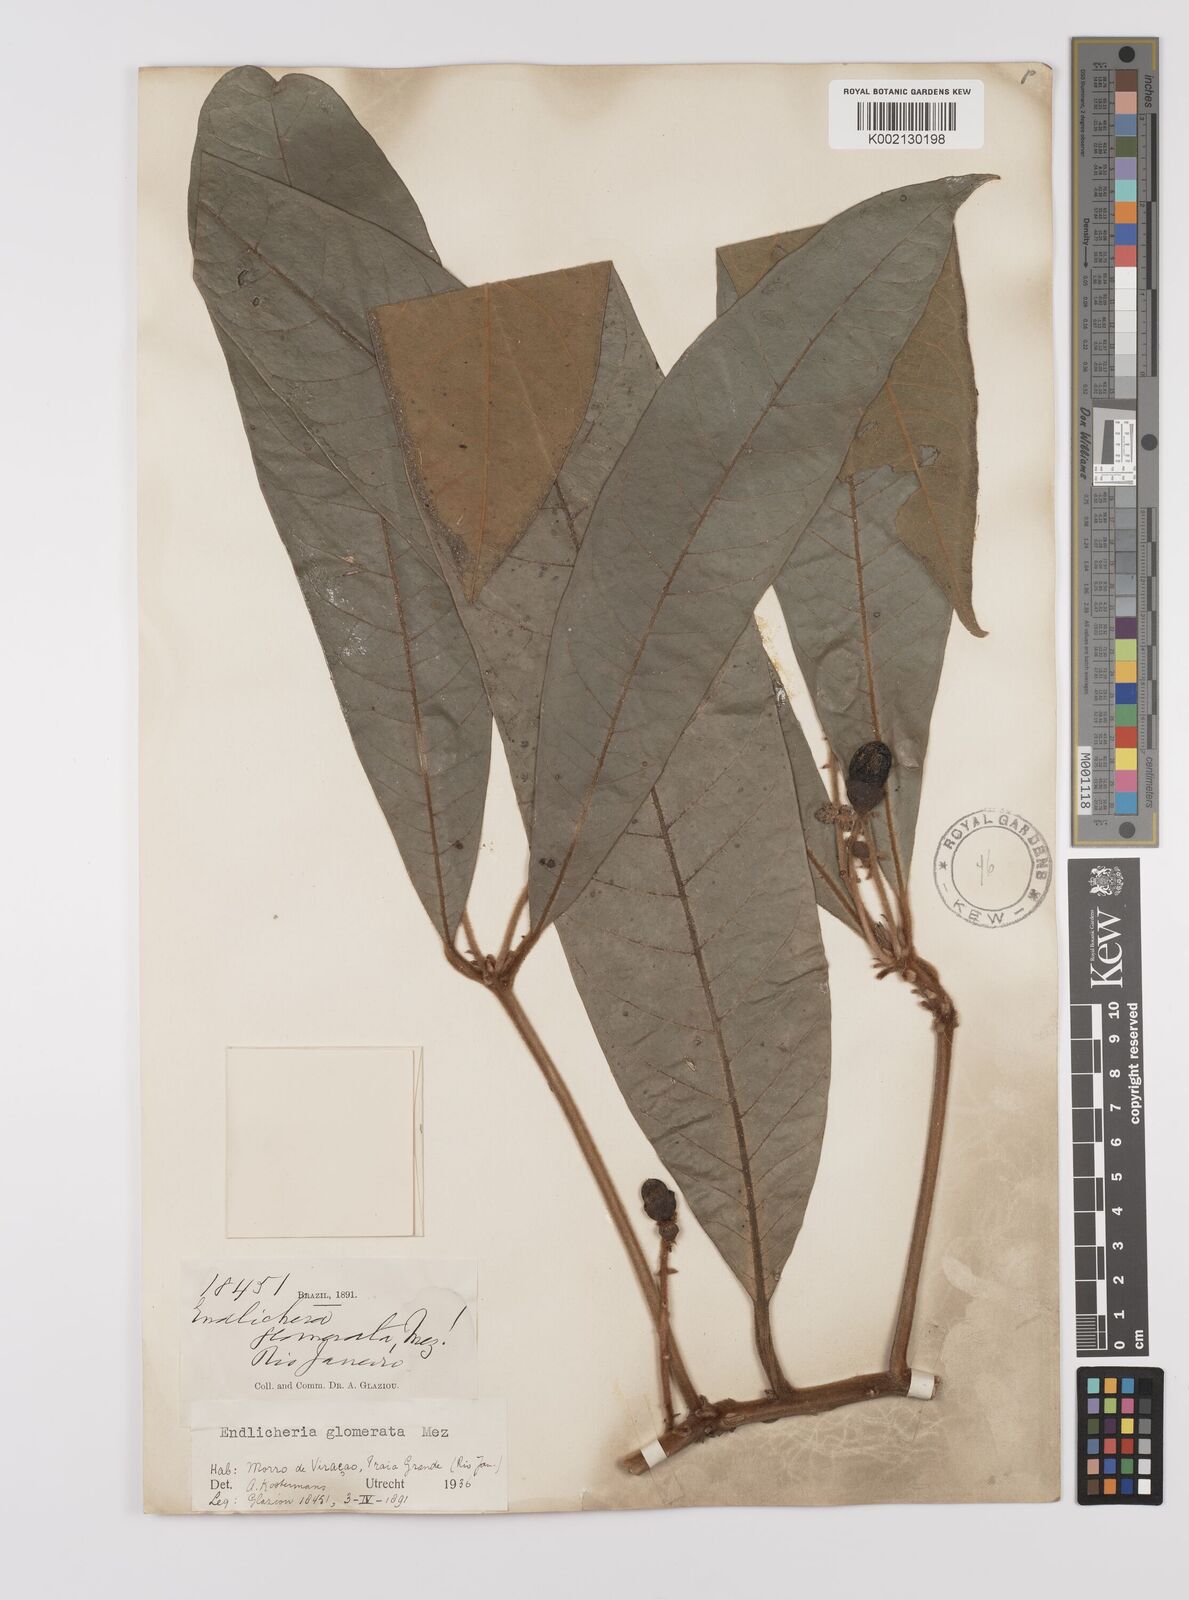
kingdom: Plantae
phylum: Tracheophyta
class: Magnoliopsida
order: Laurales
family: Lauraceae
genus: Endlicheria
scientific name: Endlicheria glomerata
